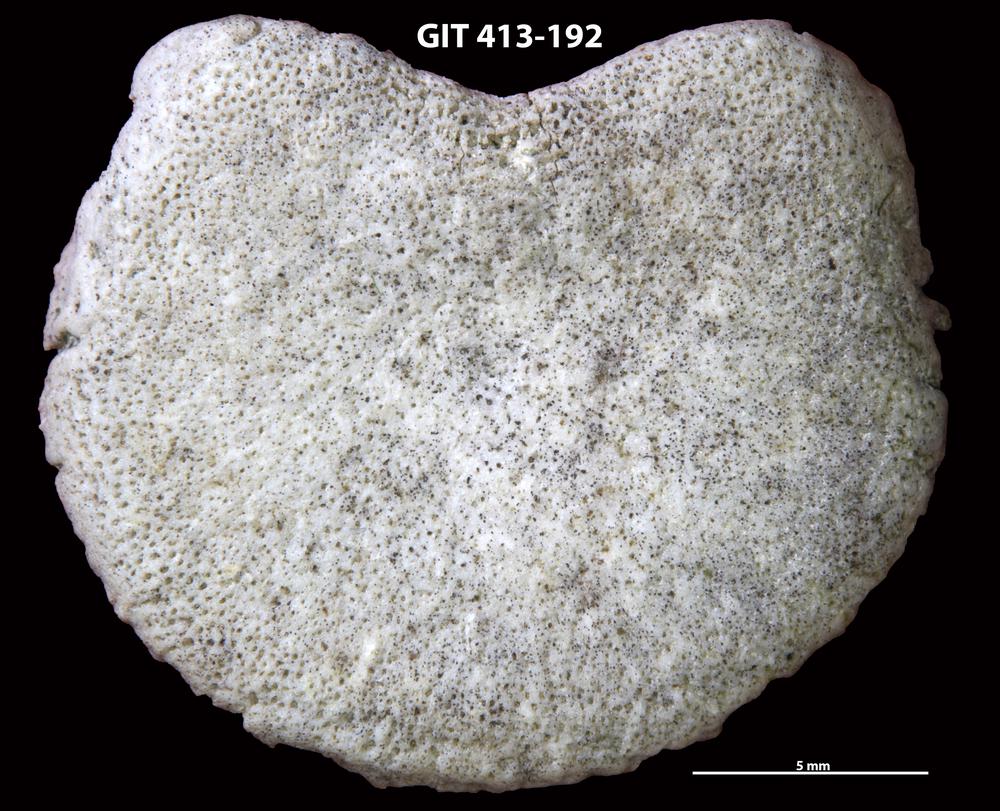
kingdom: Animalia
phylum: Porifera
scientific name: Porifera
